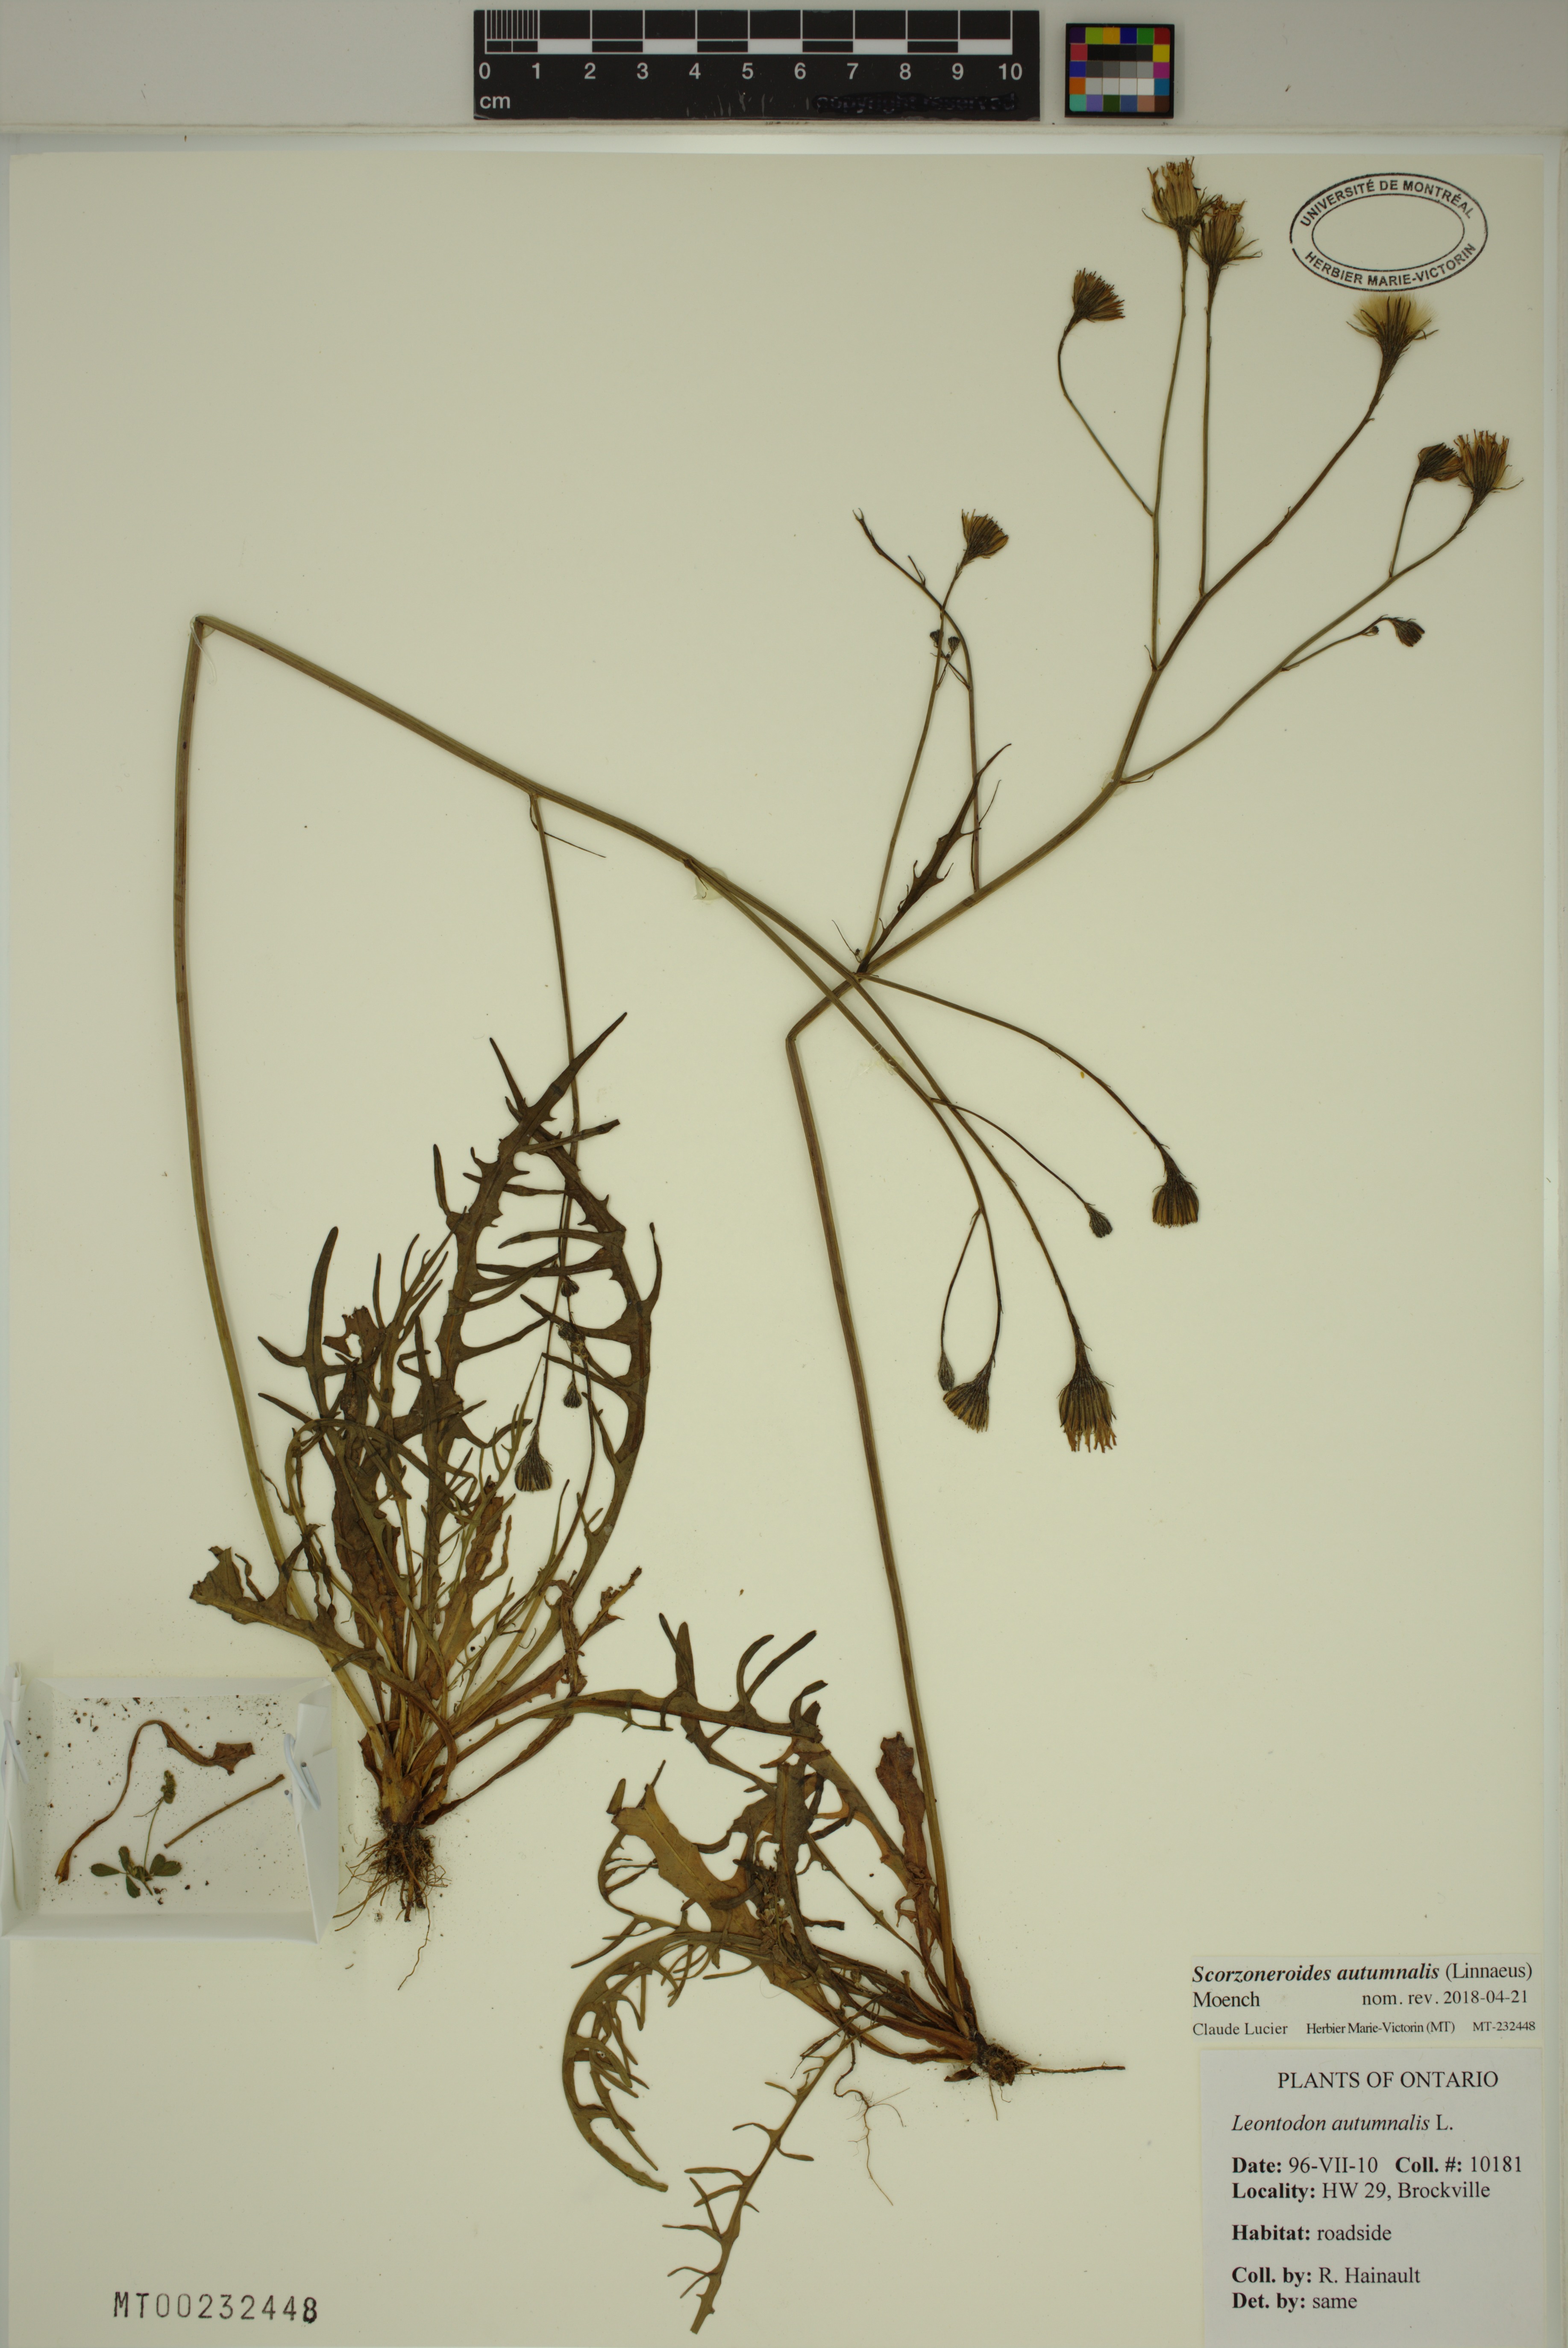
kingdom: Plantae
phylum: Tracheophyta
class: Magnoliopsida
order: Asterales
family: Asteraceae
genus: Scorzoneroides
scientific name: Scorzoneroides autumnalis
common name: Autumn hawkbit
